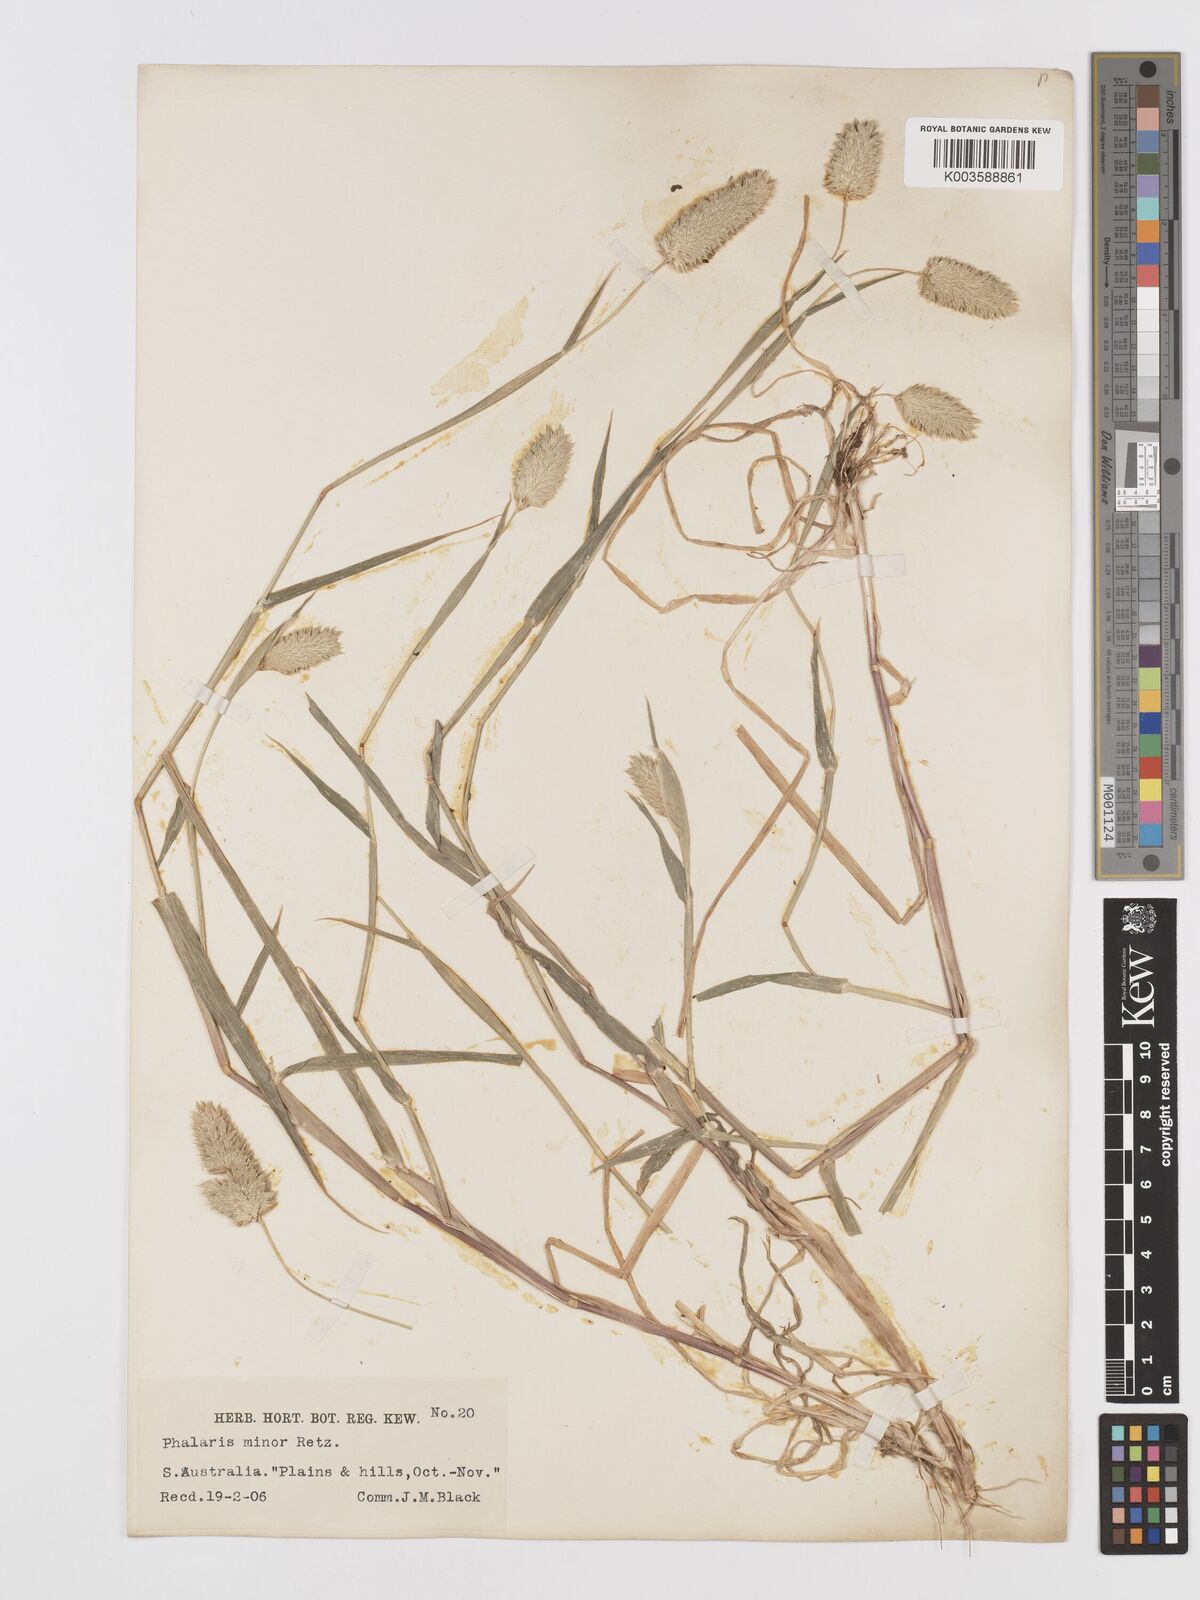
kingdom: Plantae
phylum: Tracheophyta
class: Liliopsida
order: Poales
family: Poaceae
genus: Phalaris
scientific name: Phalaris minor
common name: Littleseed canarygrass
